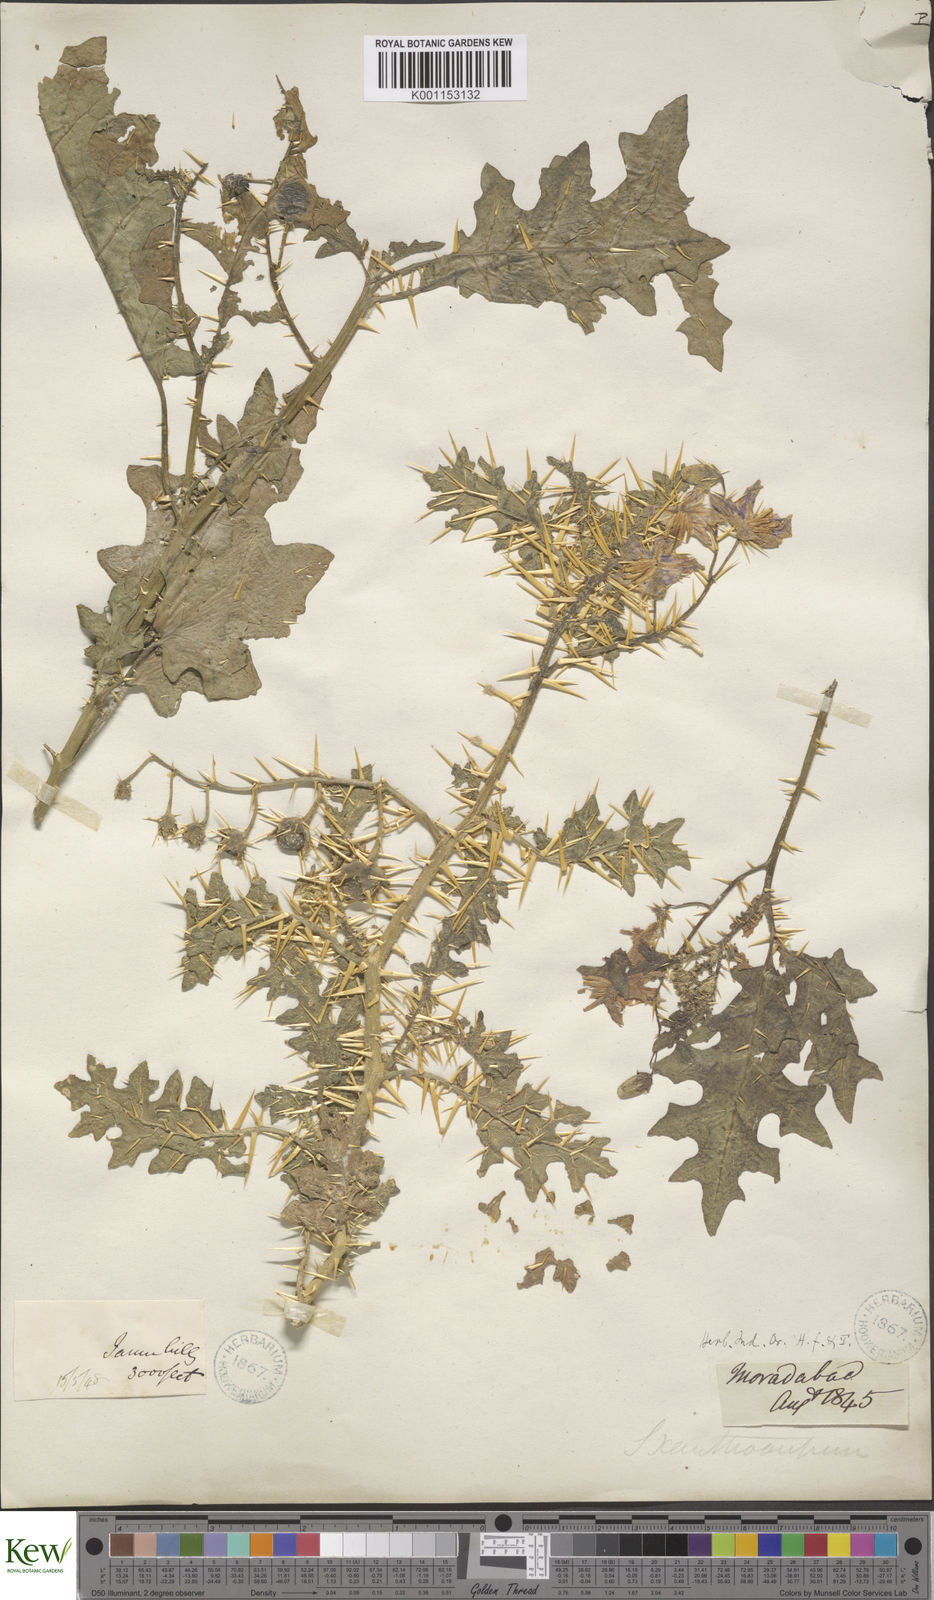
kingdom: Plantae
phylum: Tracheophyta
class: Magnoliopsida
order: Solanales
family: Solanaceae
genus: Solanum
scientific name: Solanum virginianum
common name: Surattense nightshade
